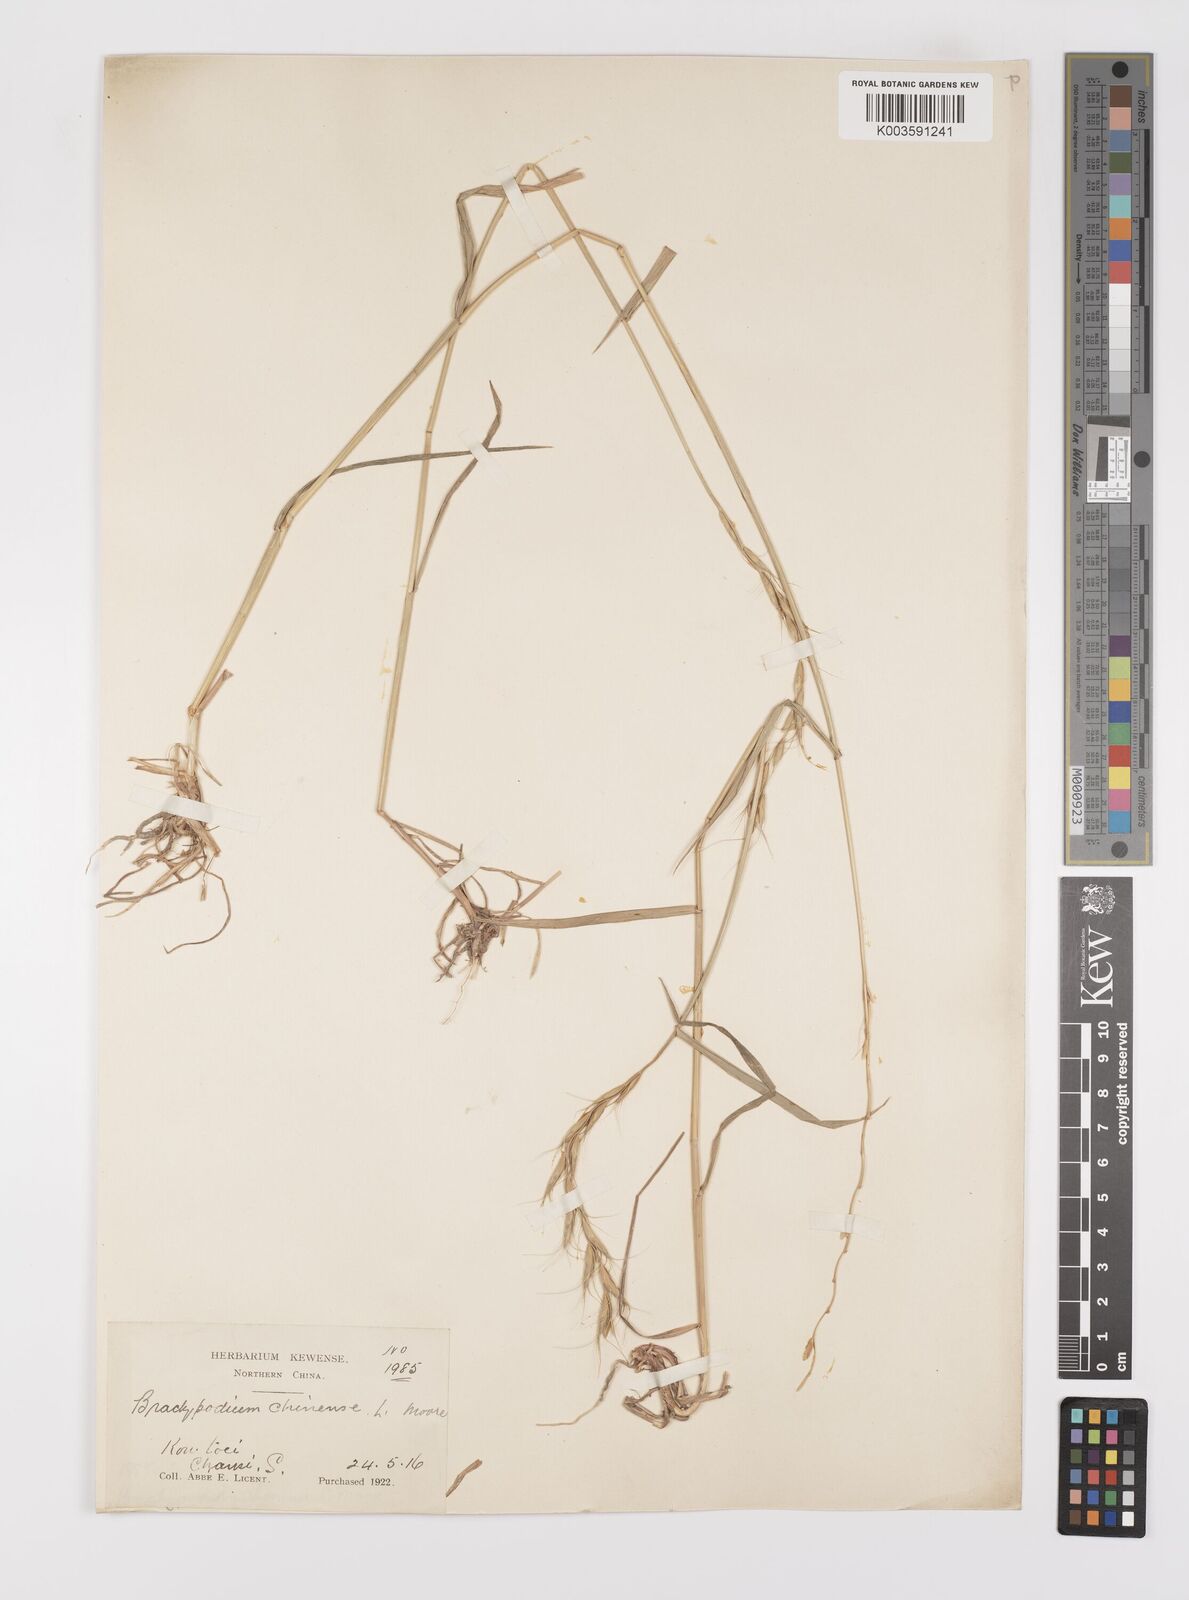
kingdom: Plantae
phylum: Tracheophyta
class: Liliopsida
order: Poales
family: Poaceae
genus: Leymus
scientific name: Leymus chinensis
